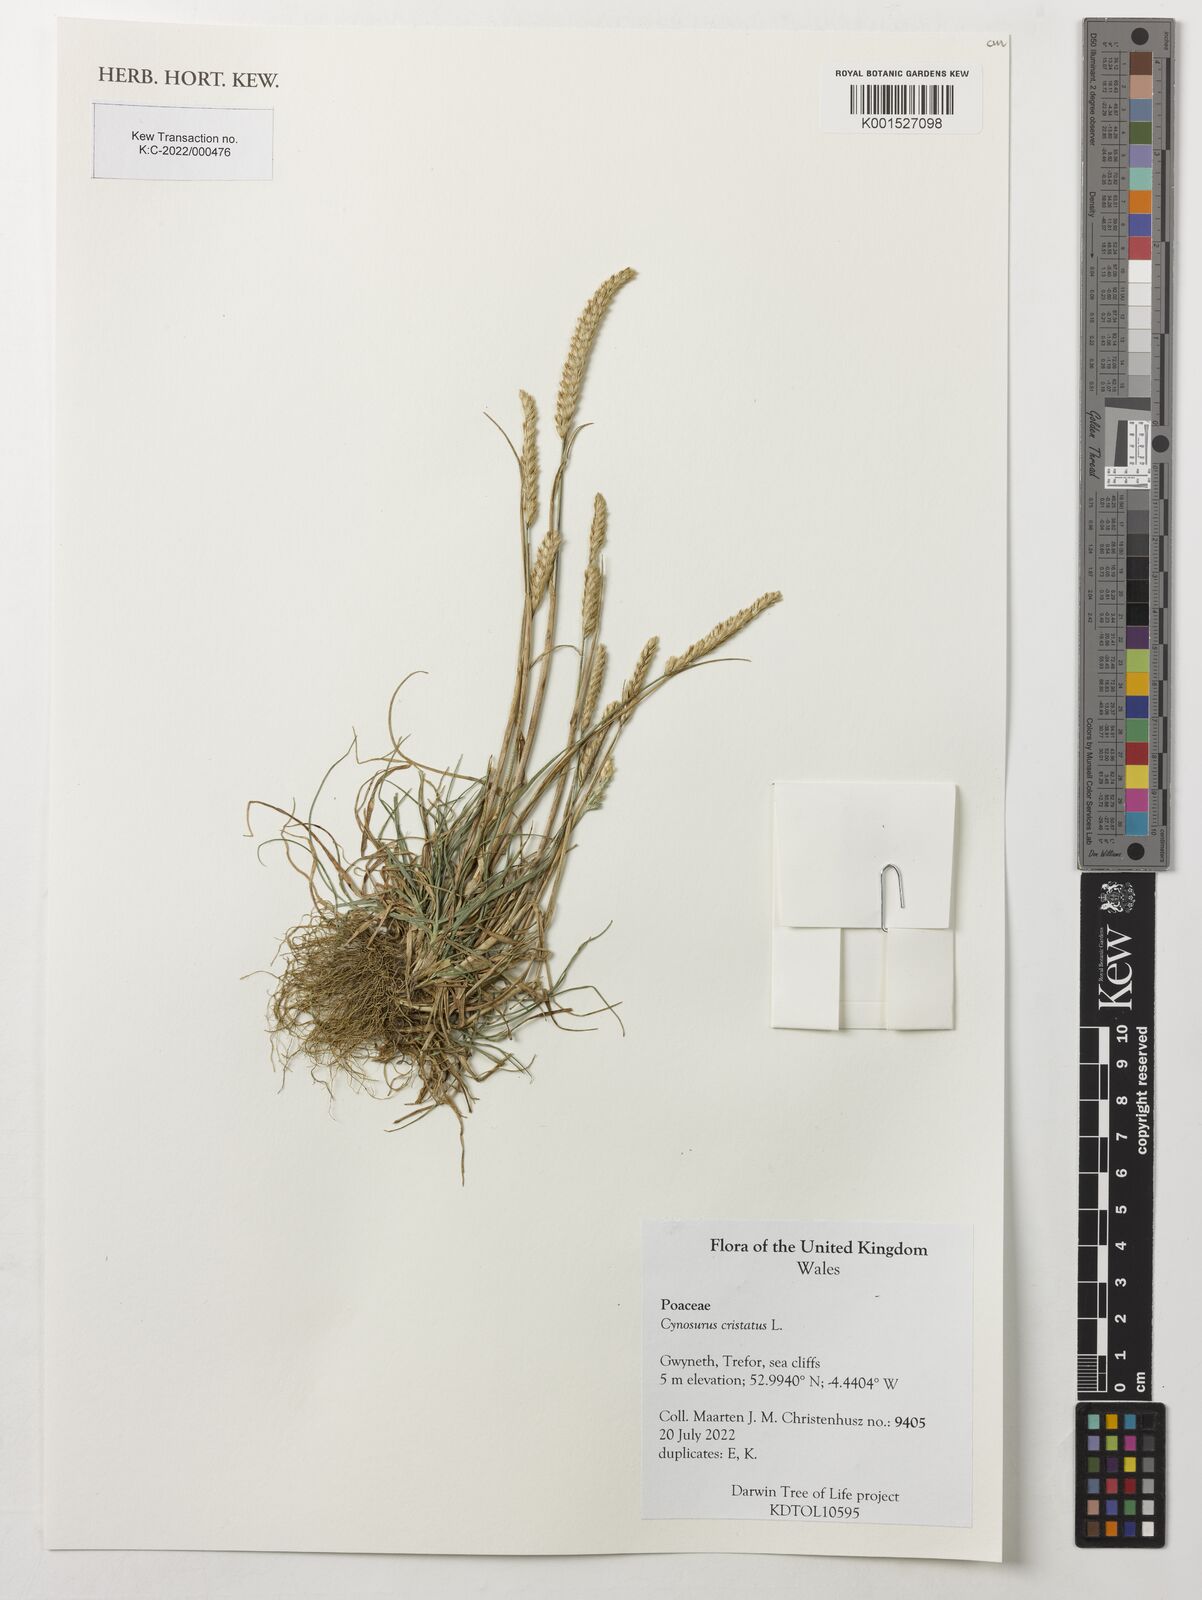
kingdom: Plantae
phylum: Tracheophyta
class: Liliopsida
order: Poales
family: Poaceae
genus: Cynosurus
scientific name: Cynosurus cristatus
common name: Crested dog's-tail
